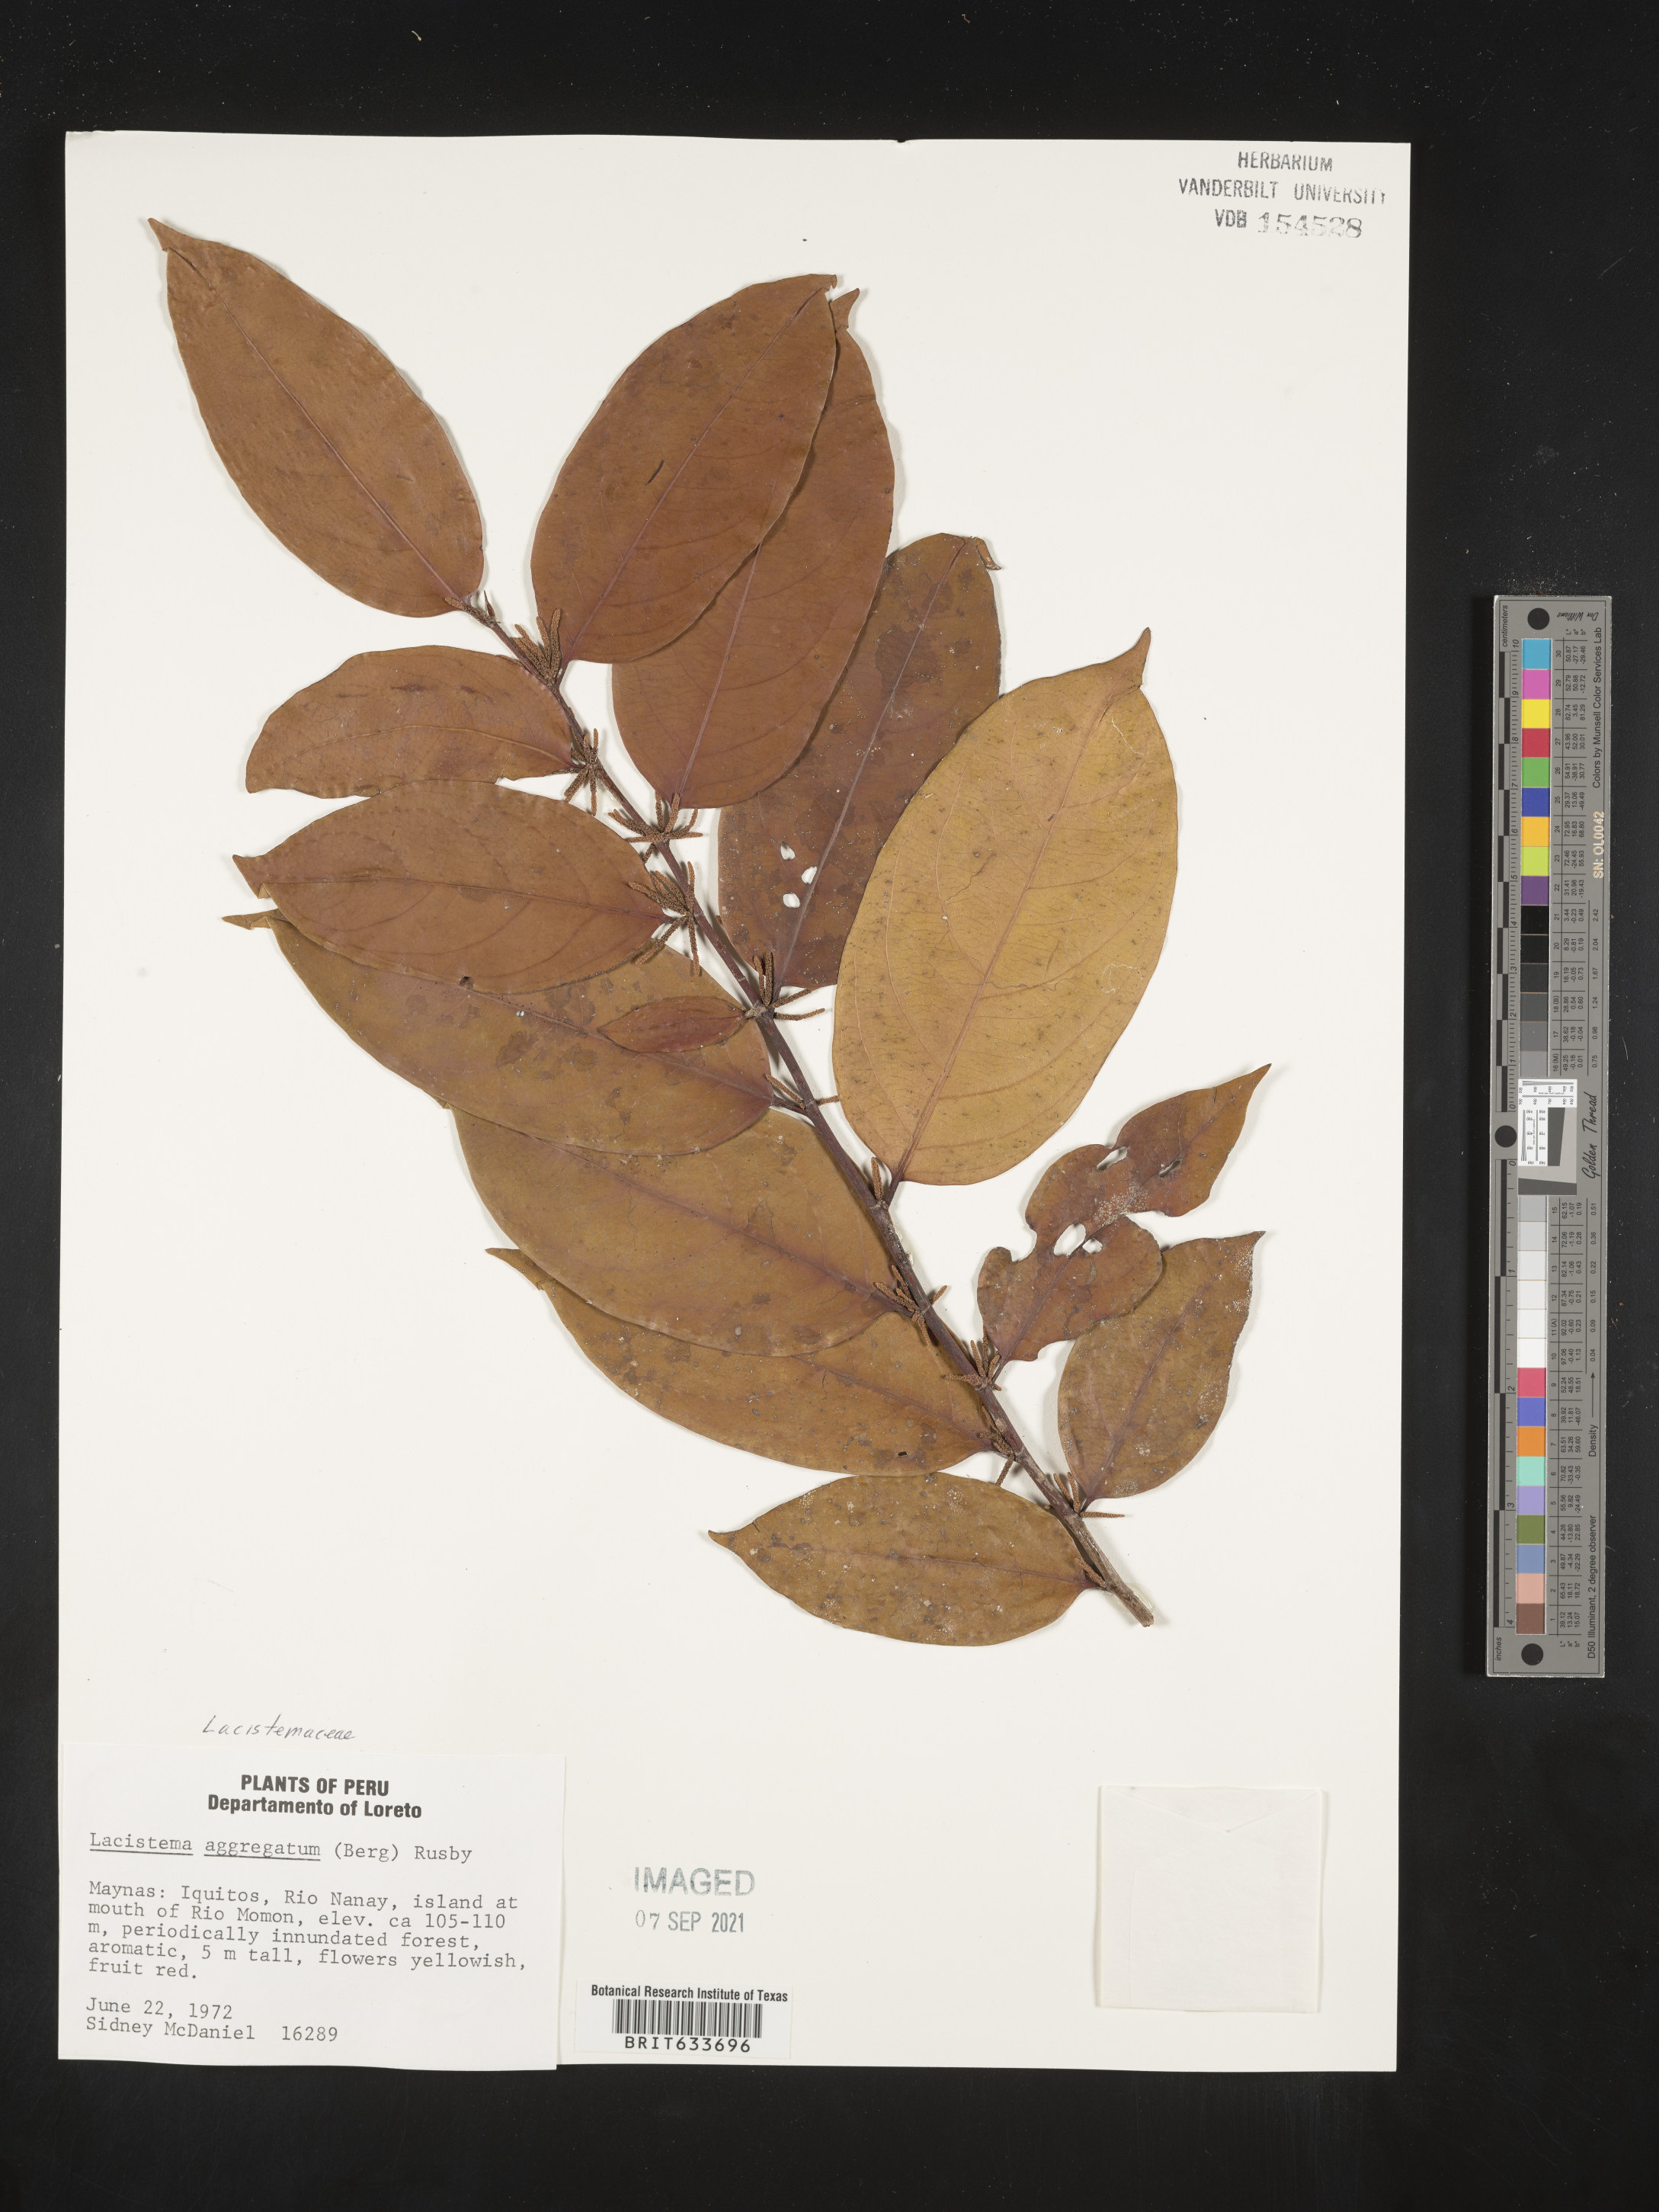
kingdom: Plantae
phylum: Tracheophyta
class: Magnoliopsida
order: Malpighiales
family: Lacistemataceae
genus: Lacistema
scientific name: Lacistema
